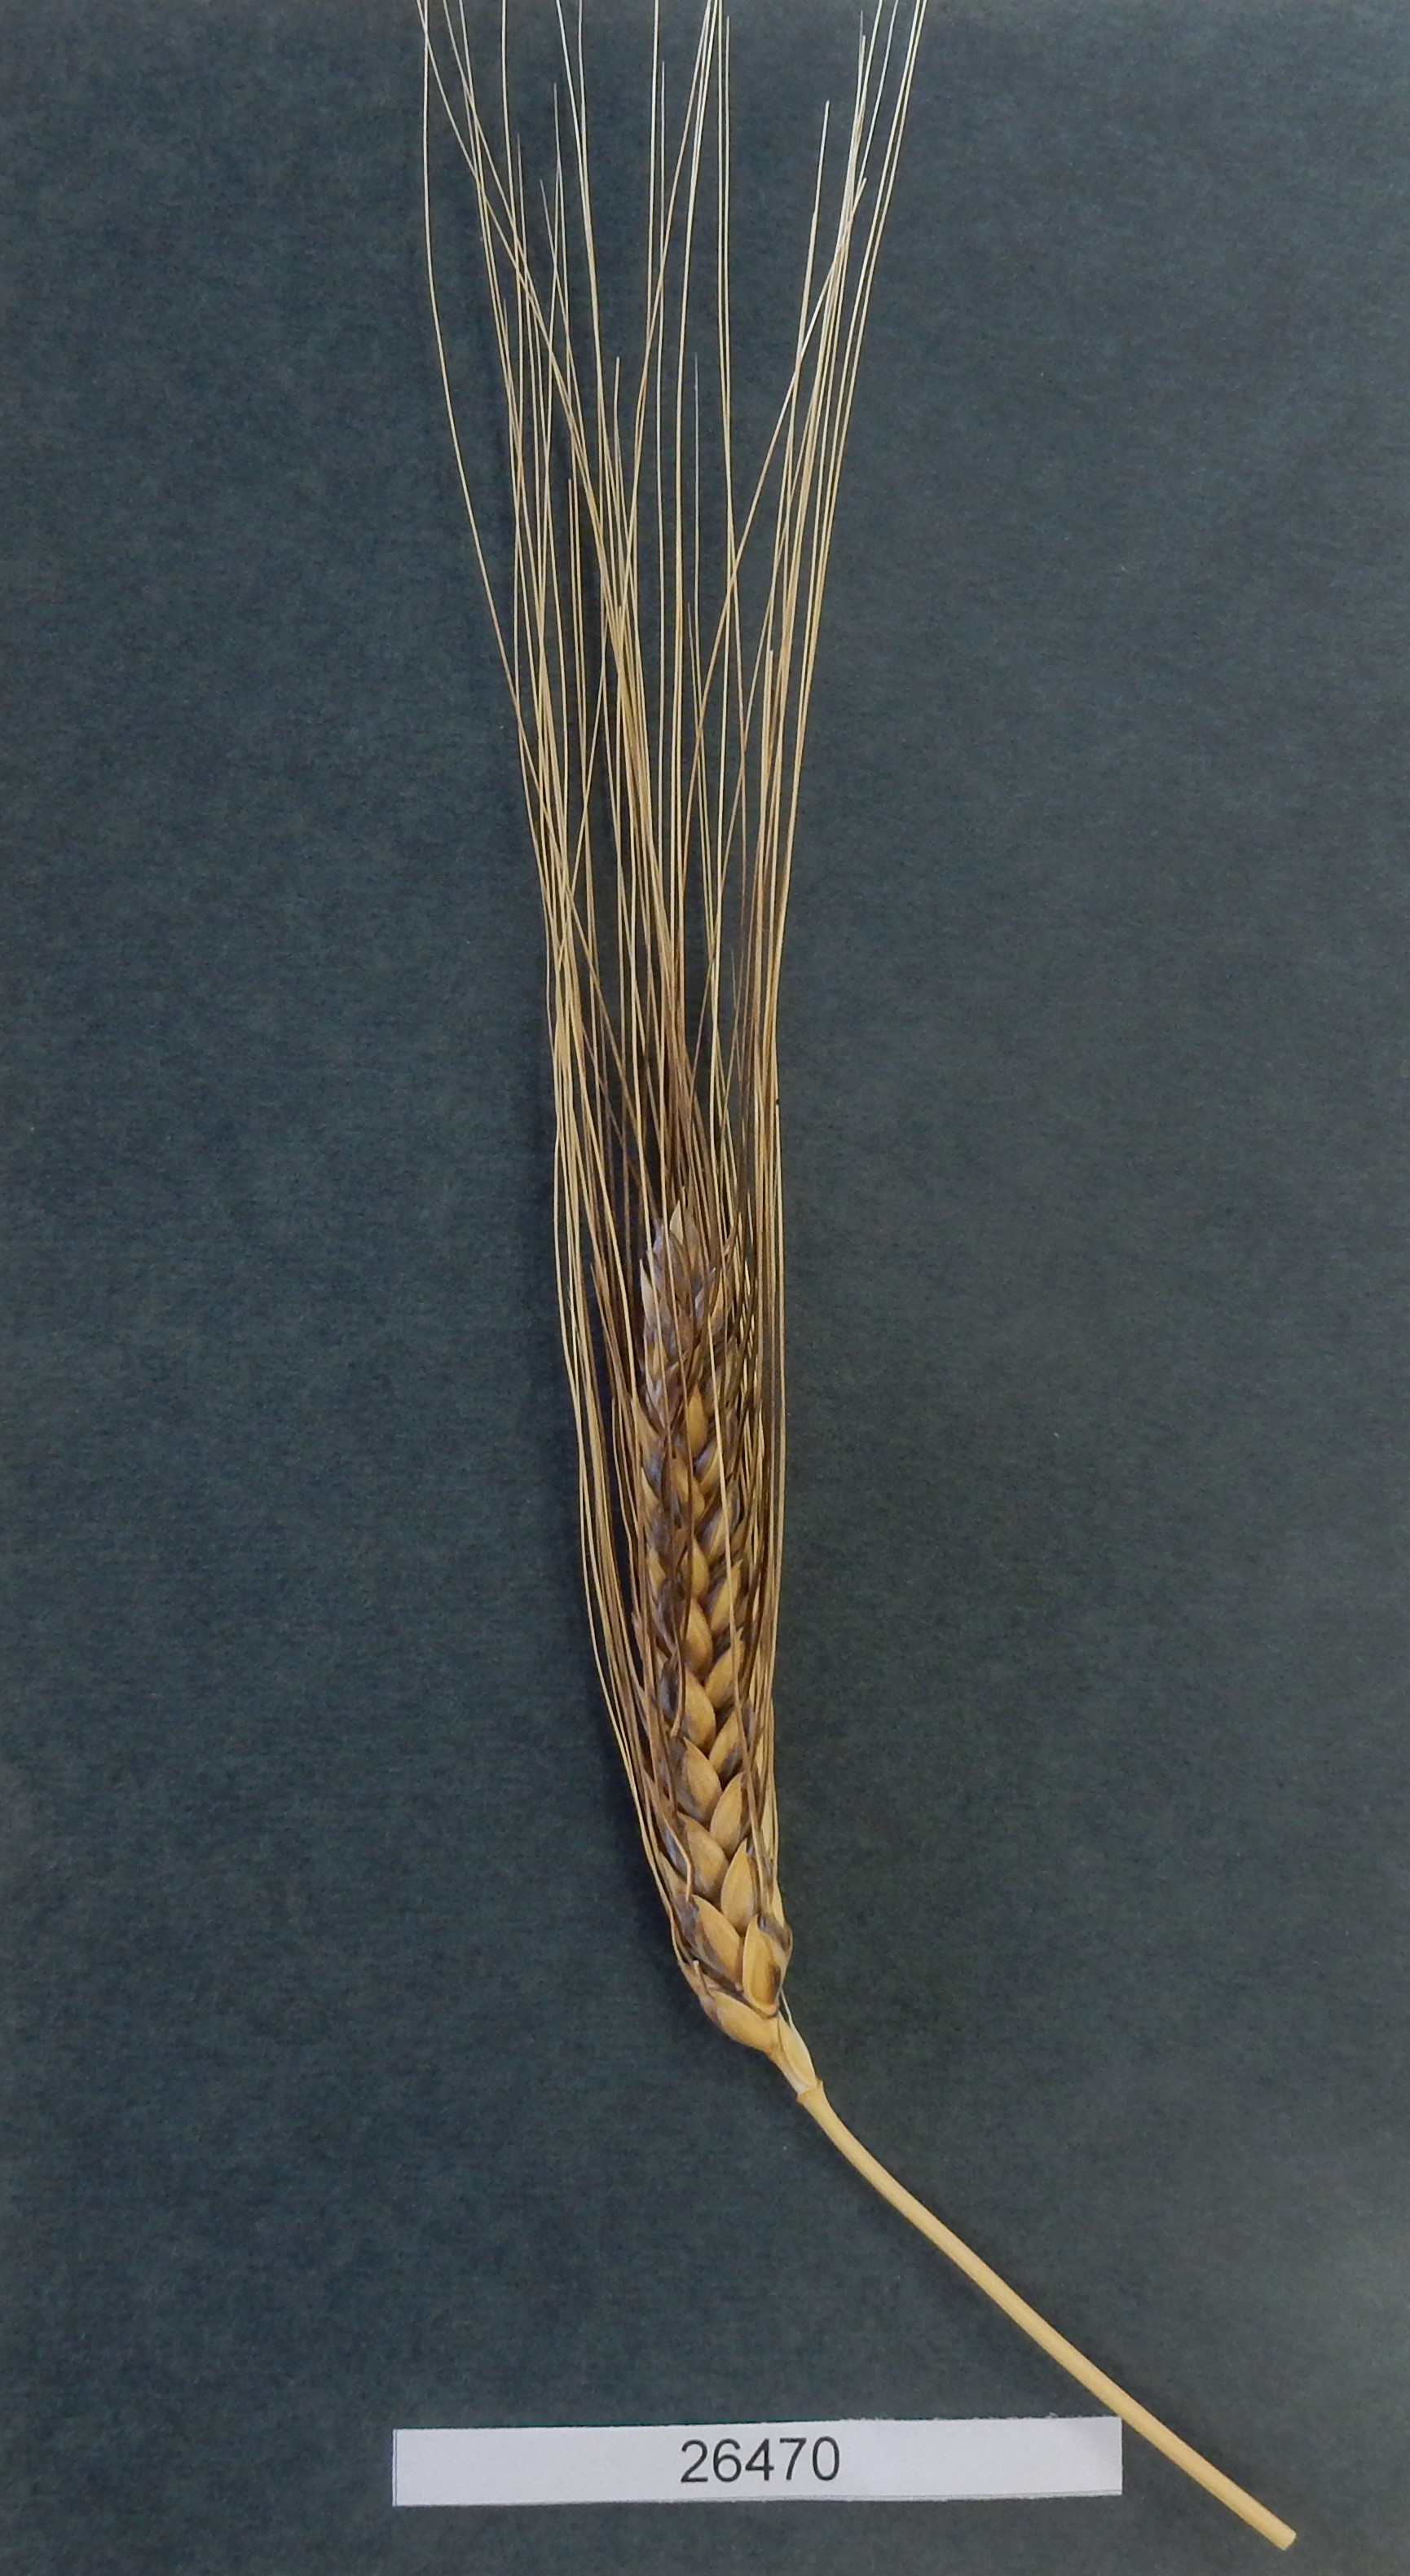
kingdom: Plantae
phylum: Tracheophyta
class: Liliopsida
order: Poales
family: Poaceae
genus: Triticum
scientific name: Triticum turgidum
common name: Wheat
